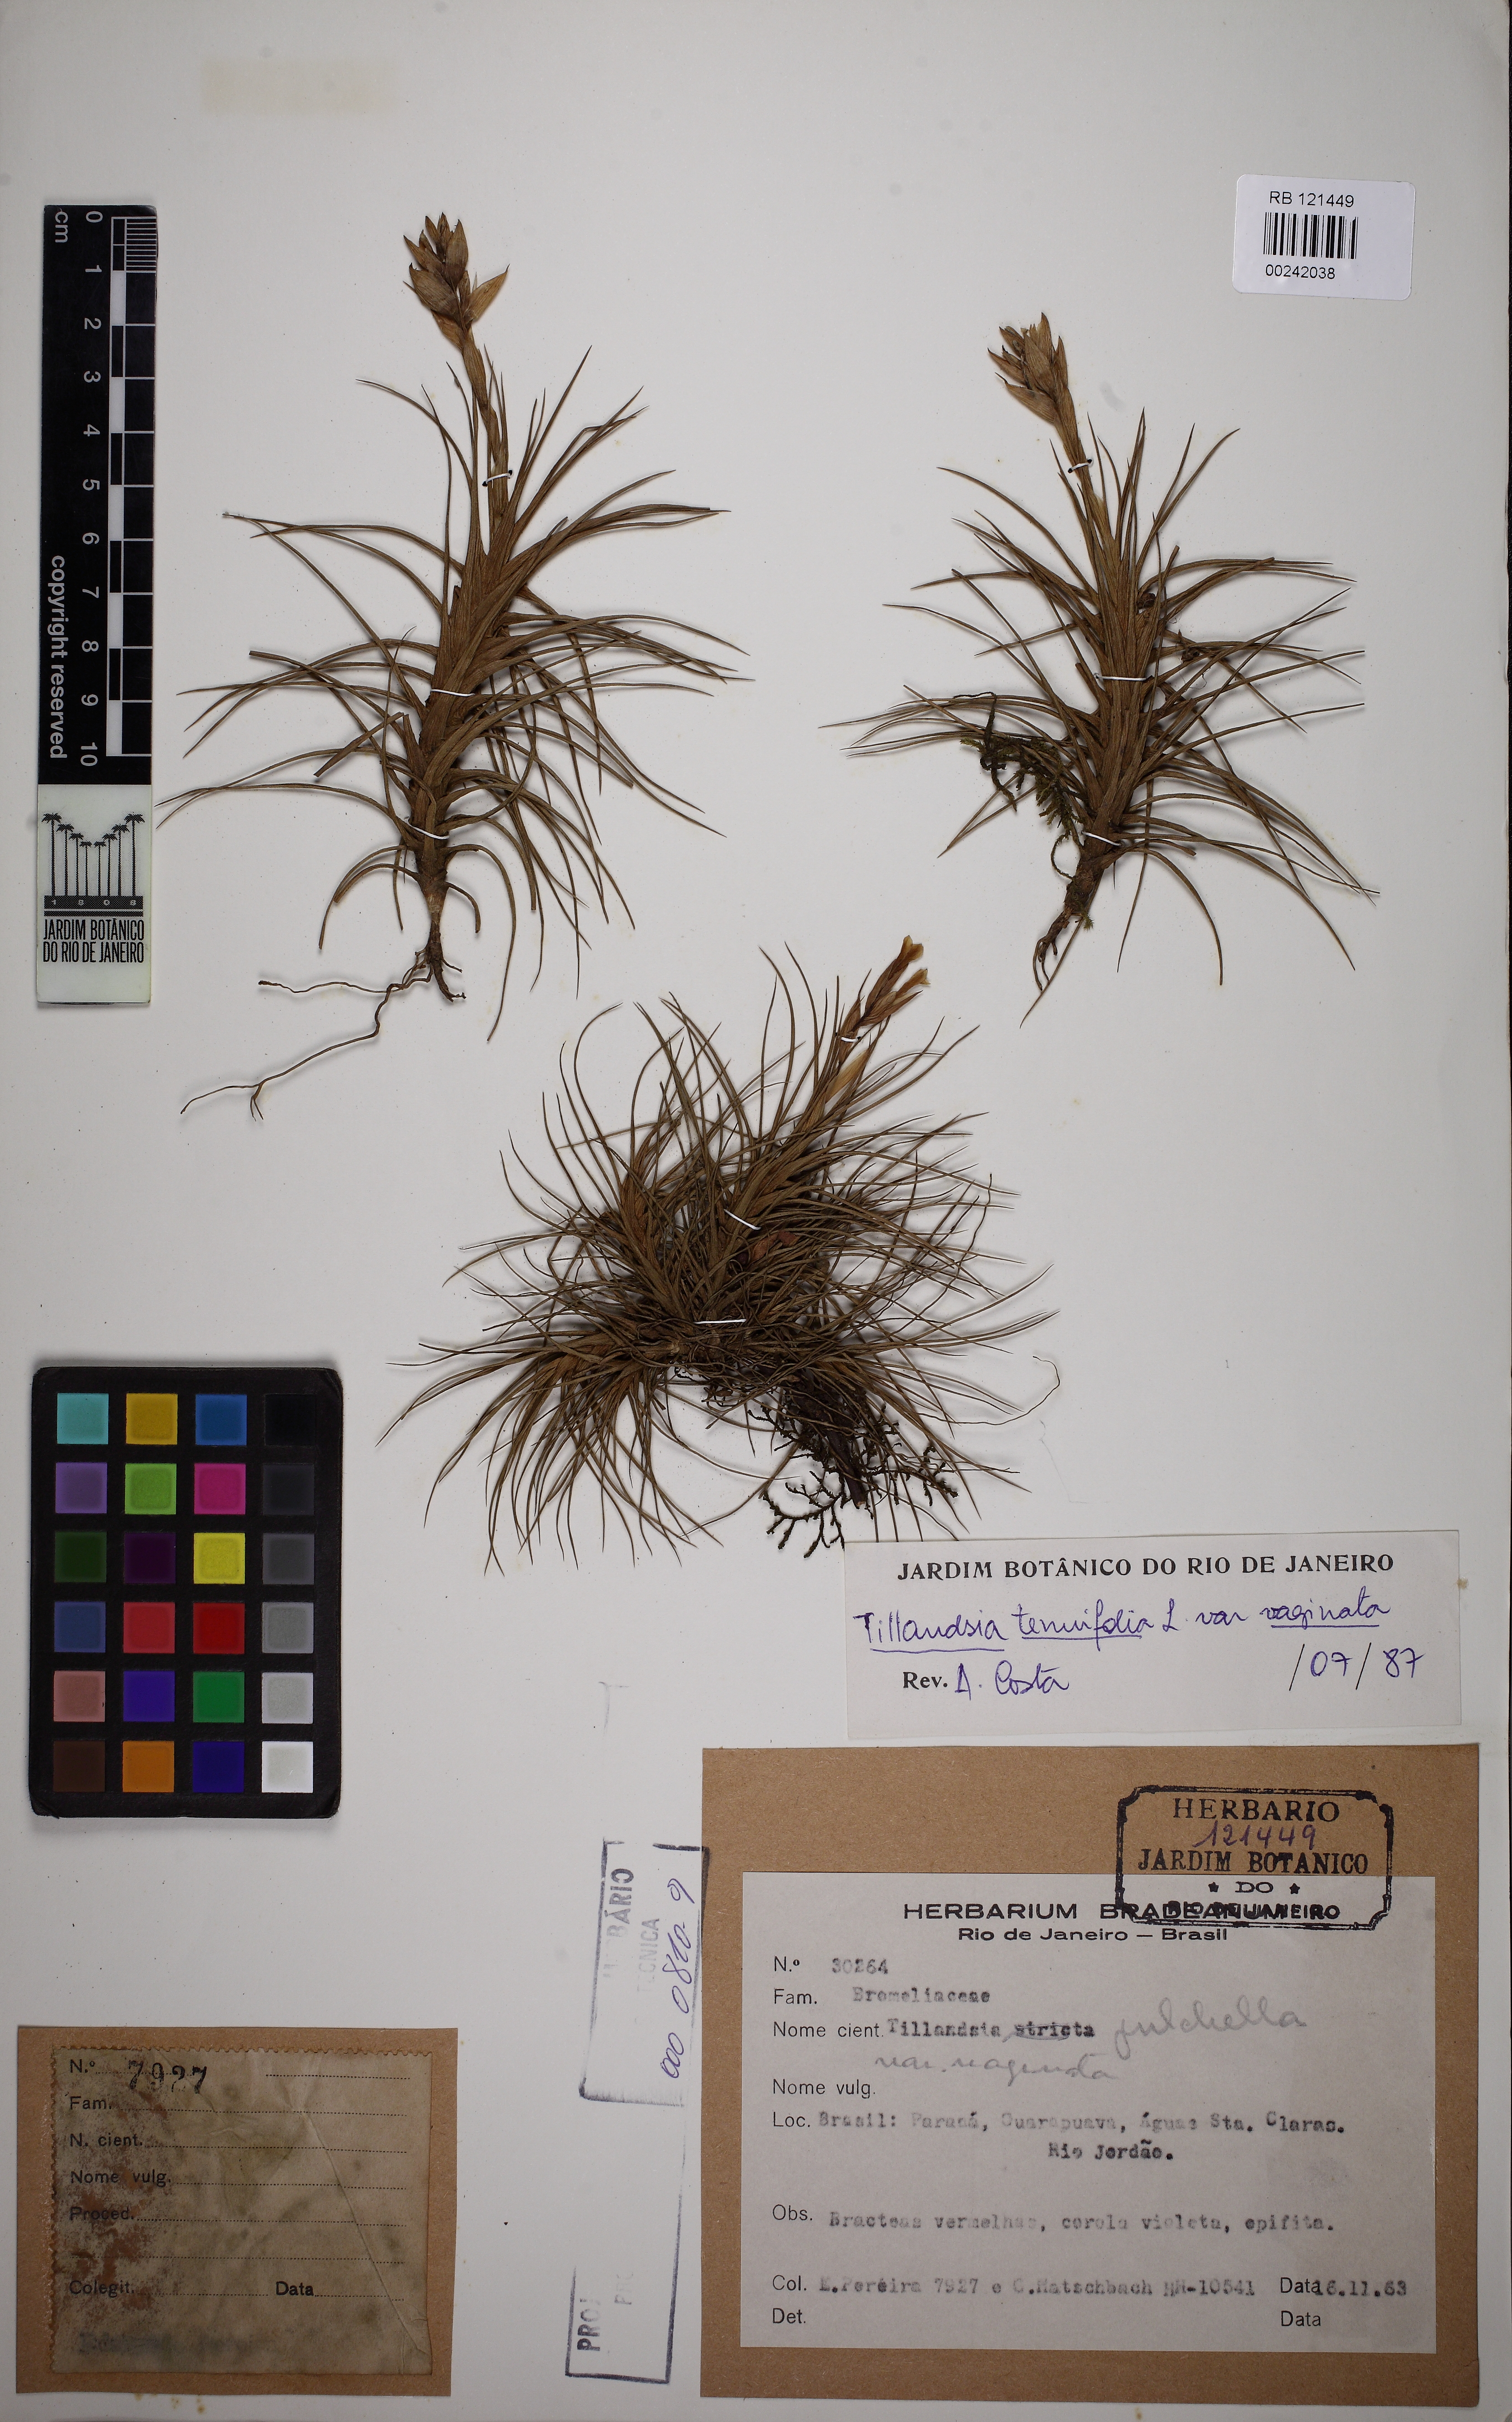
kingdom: Plantae
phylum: Tracheophyta
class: Liliopsida
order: Poales
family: Bromeliaceae
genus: Tillandsia
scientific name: Tillandsia tenuifolia
